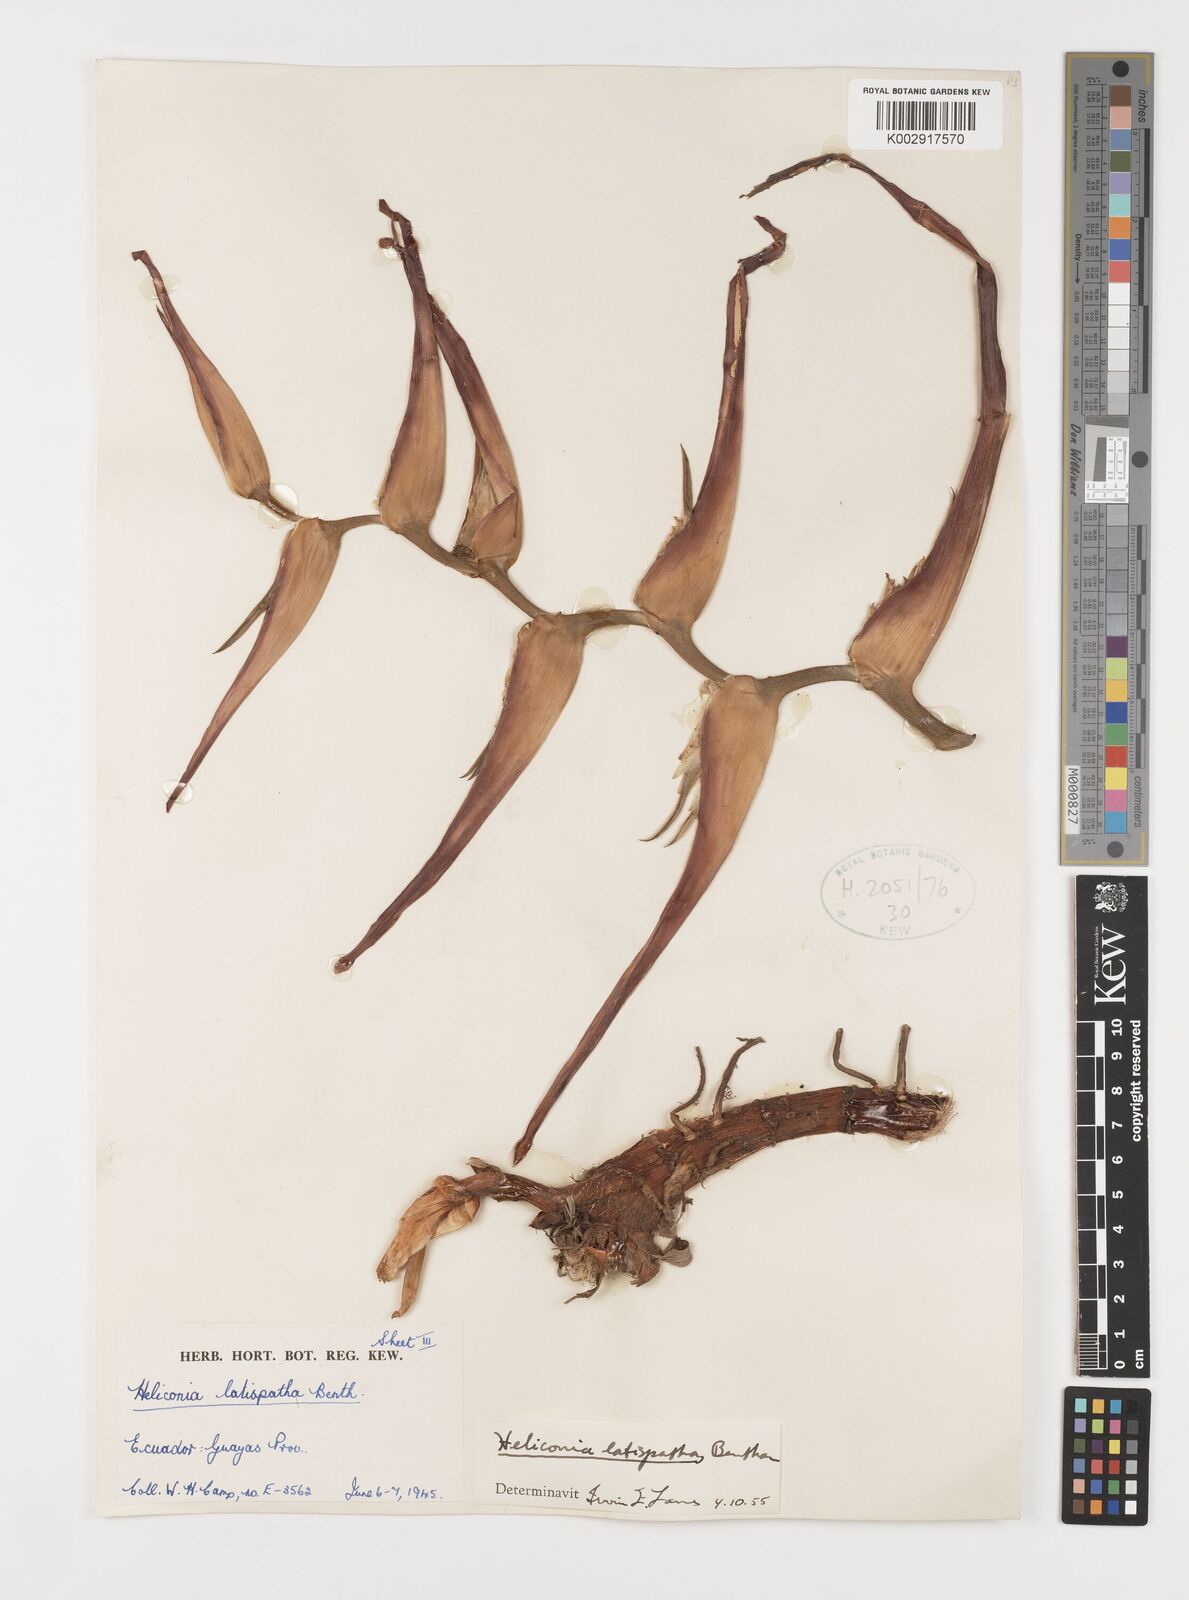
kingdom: Plantae
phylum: Tracheophyta
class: Liliopsida
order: Zingiberales
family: Heliconiaceae
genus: Heliconia
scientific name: Heliconia latispatha
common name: Expanded lobsterclaw
